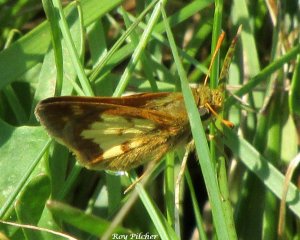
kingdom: Animalia
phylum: Arthropoda
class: Insecta
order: Lepidoptera
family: Hesperiidae
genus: Polites
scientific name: Polites coras
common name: Peck's Skipper
